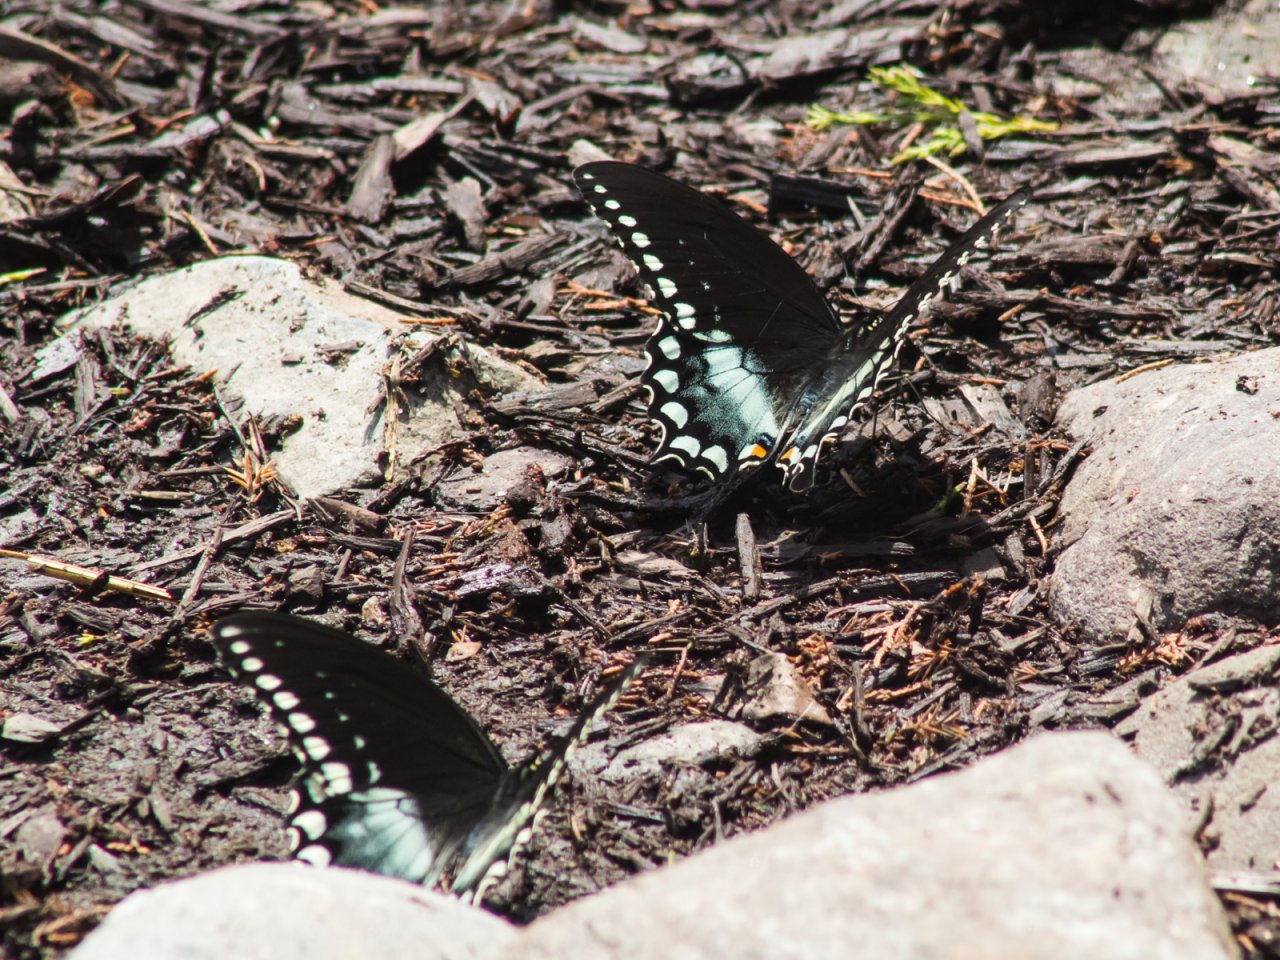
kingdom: Animalia
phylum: Arthropoda
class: Insecta
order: Lepidoptera
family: Papilionidae
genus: Pterourus
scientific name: Pterourus troilus
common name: Spicebush Swallowtail
